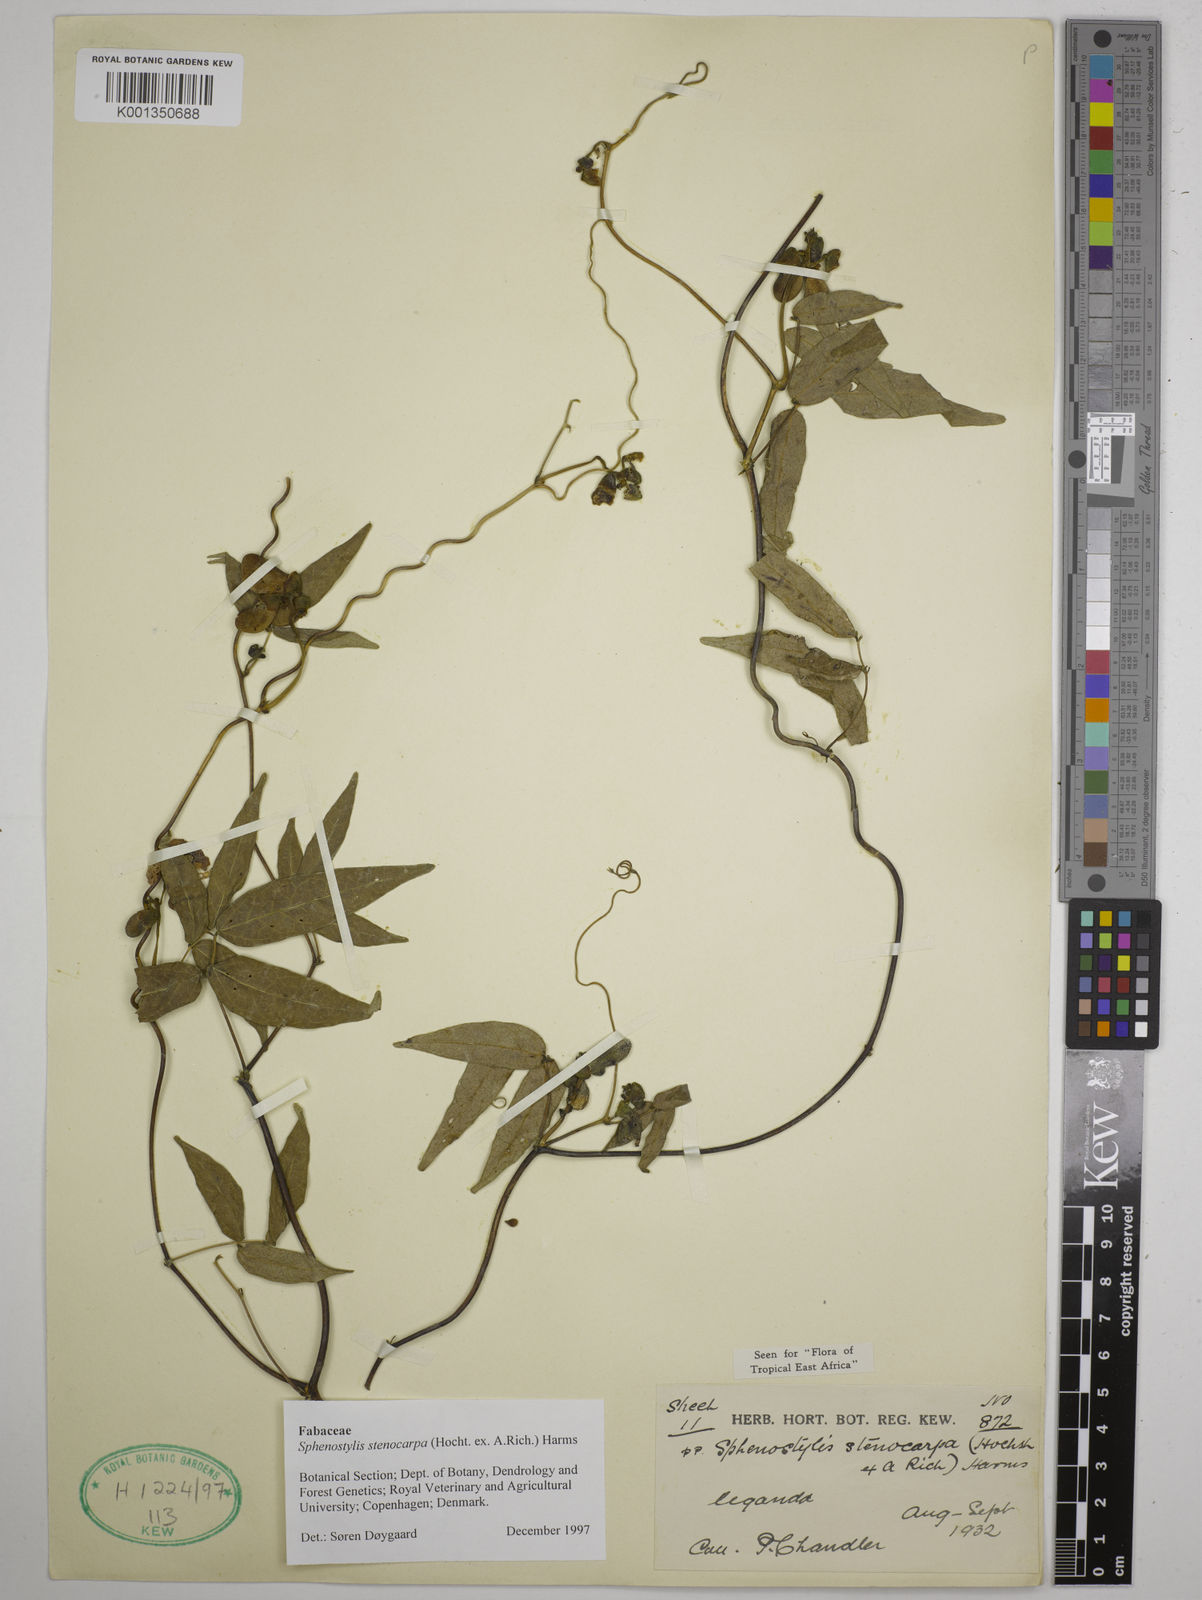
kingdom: Plantae
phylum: Tracheophyta
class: Magnoliopsida
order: Fabales
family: Fabaceae
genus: Sphenostylis
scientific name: Sphenostylis stenocarpa
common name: Yam-pea
